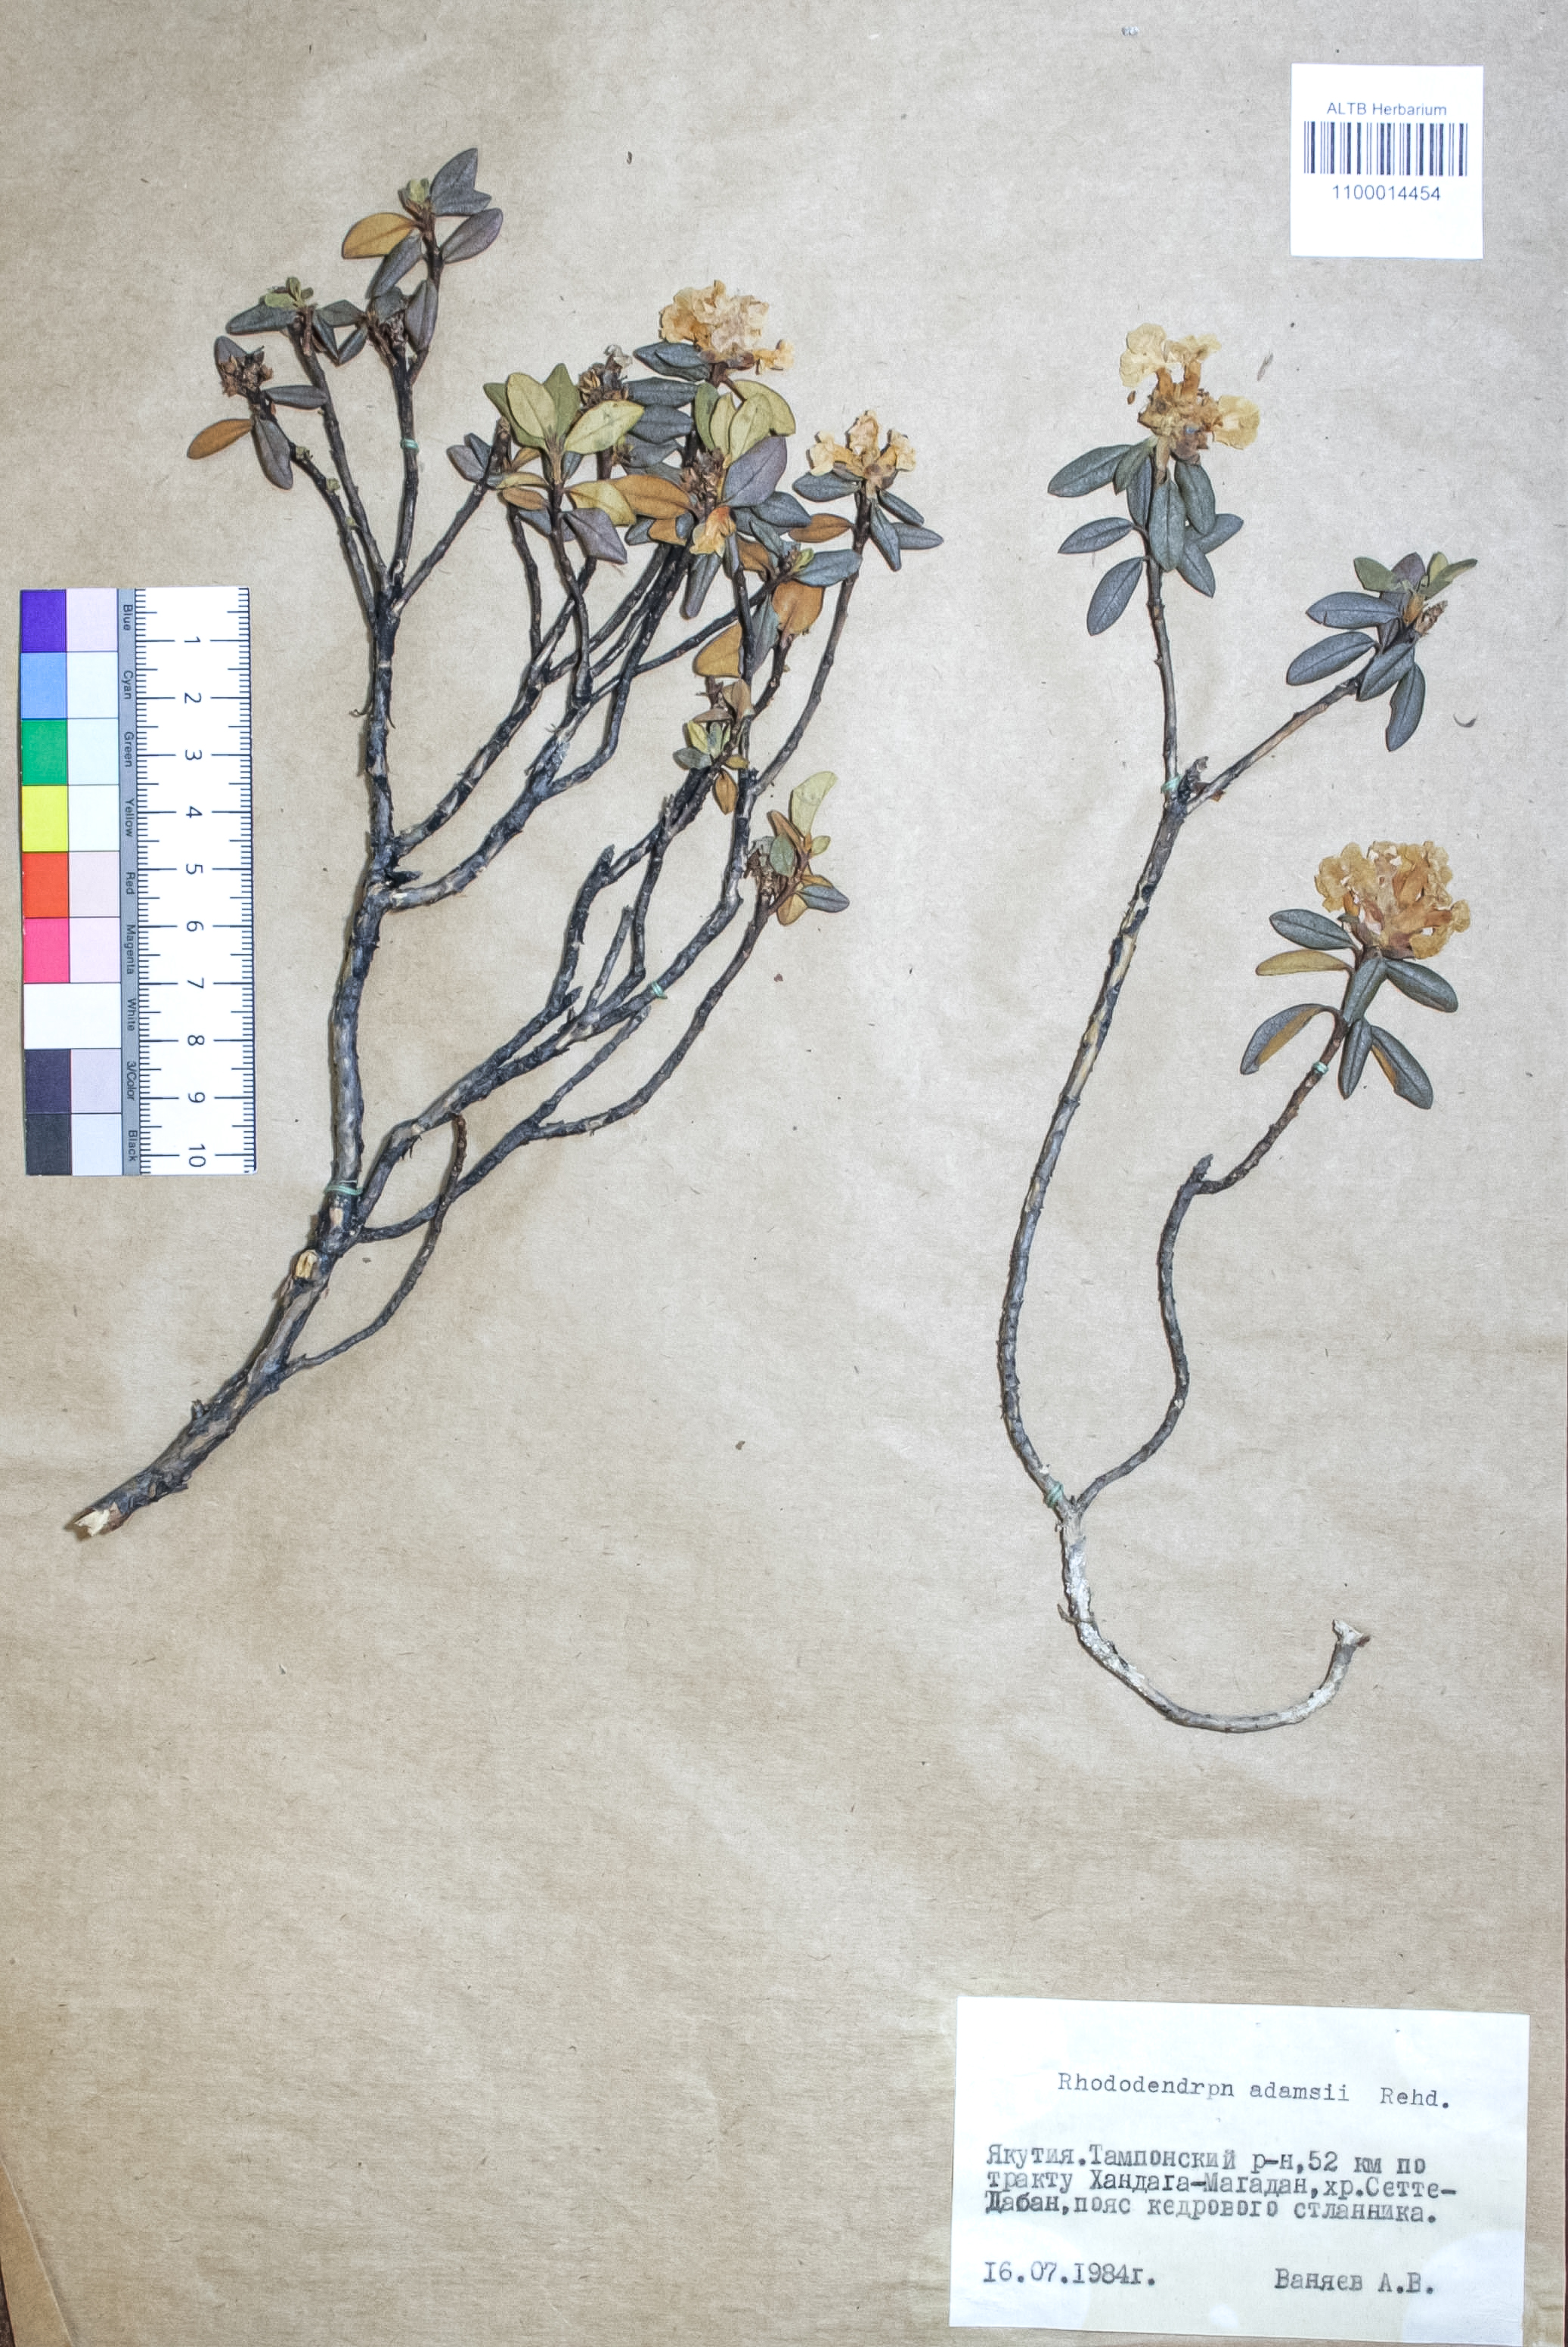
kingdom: Plantae
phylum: Tracheophyta
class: Magnoliopsida
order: Ericales
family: Ericaceae
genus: Rhododendron
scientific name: Rhododendron adamsii
